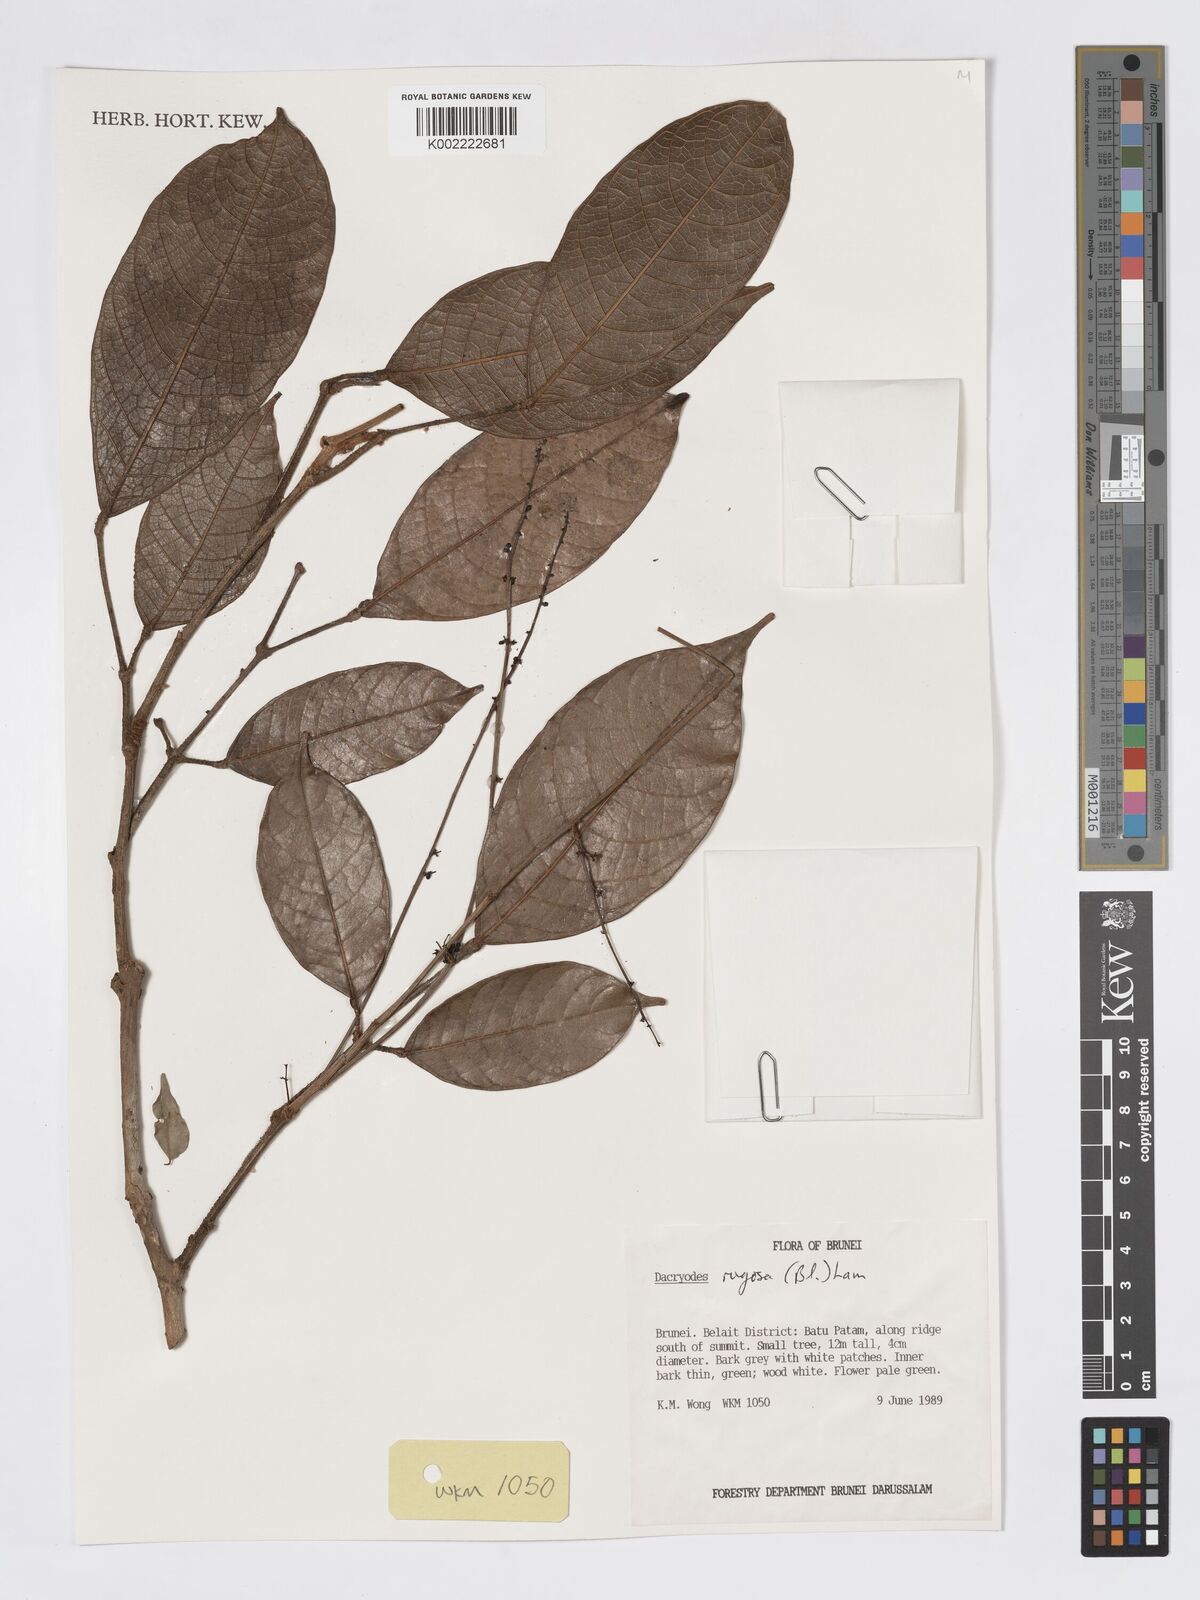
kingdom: Plantae
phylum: Tracheophyta
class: Magnoliopsida
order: Sapindales
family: Burseraceae
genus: Dacryodes
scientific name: Dacryodes rugosa
